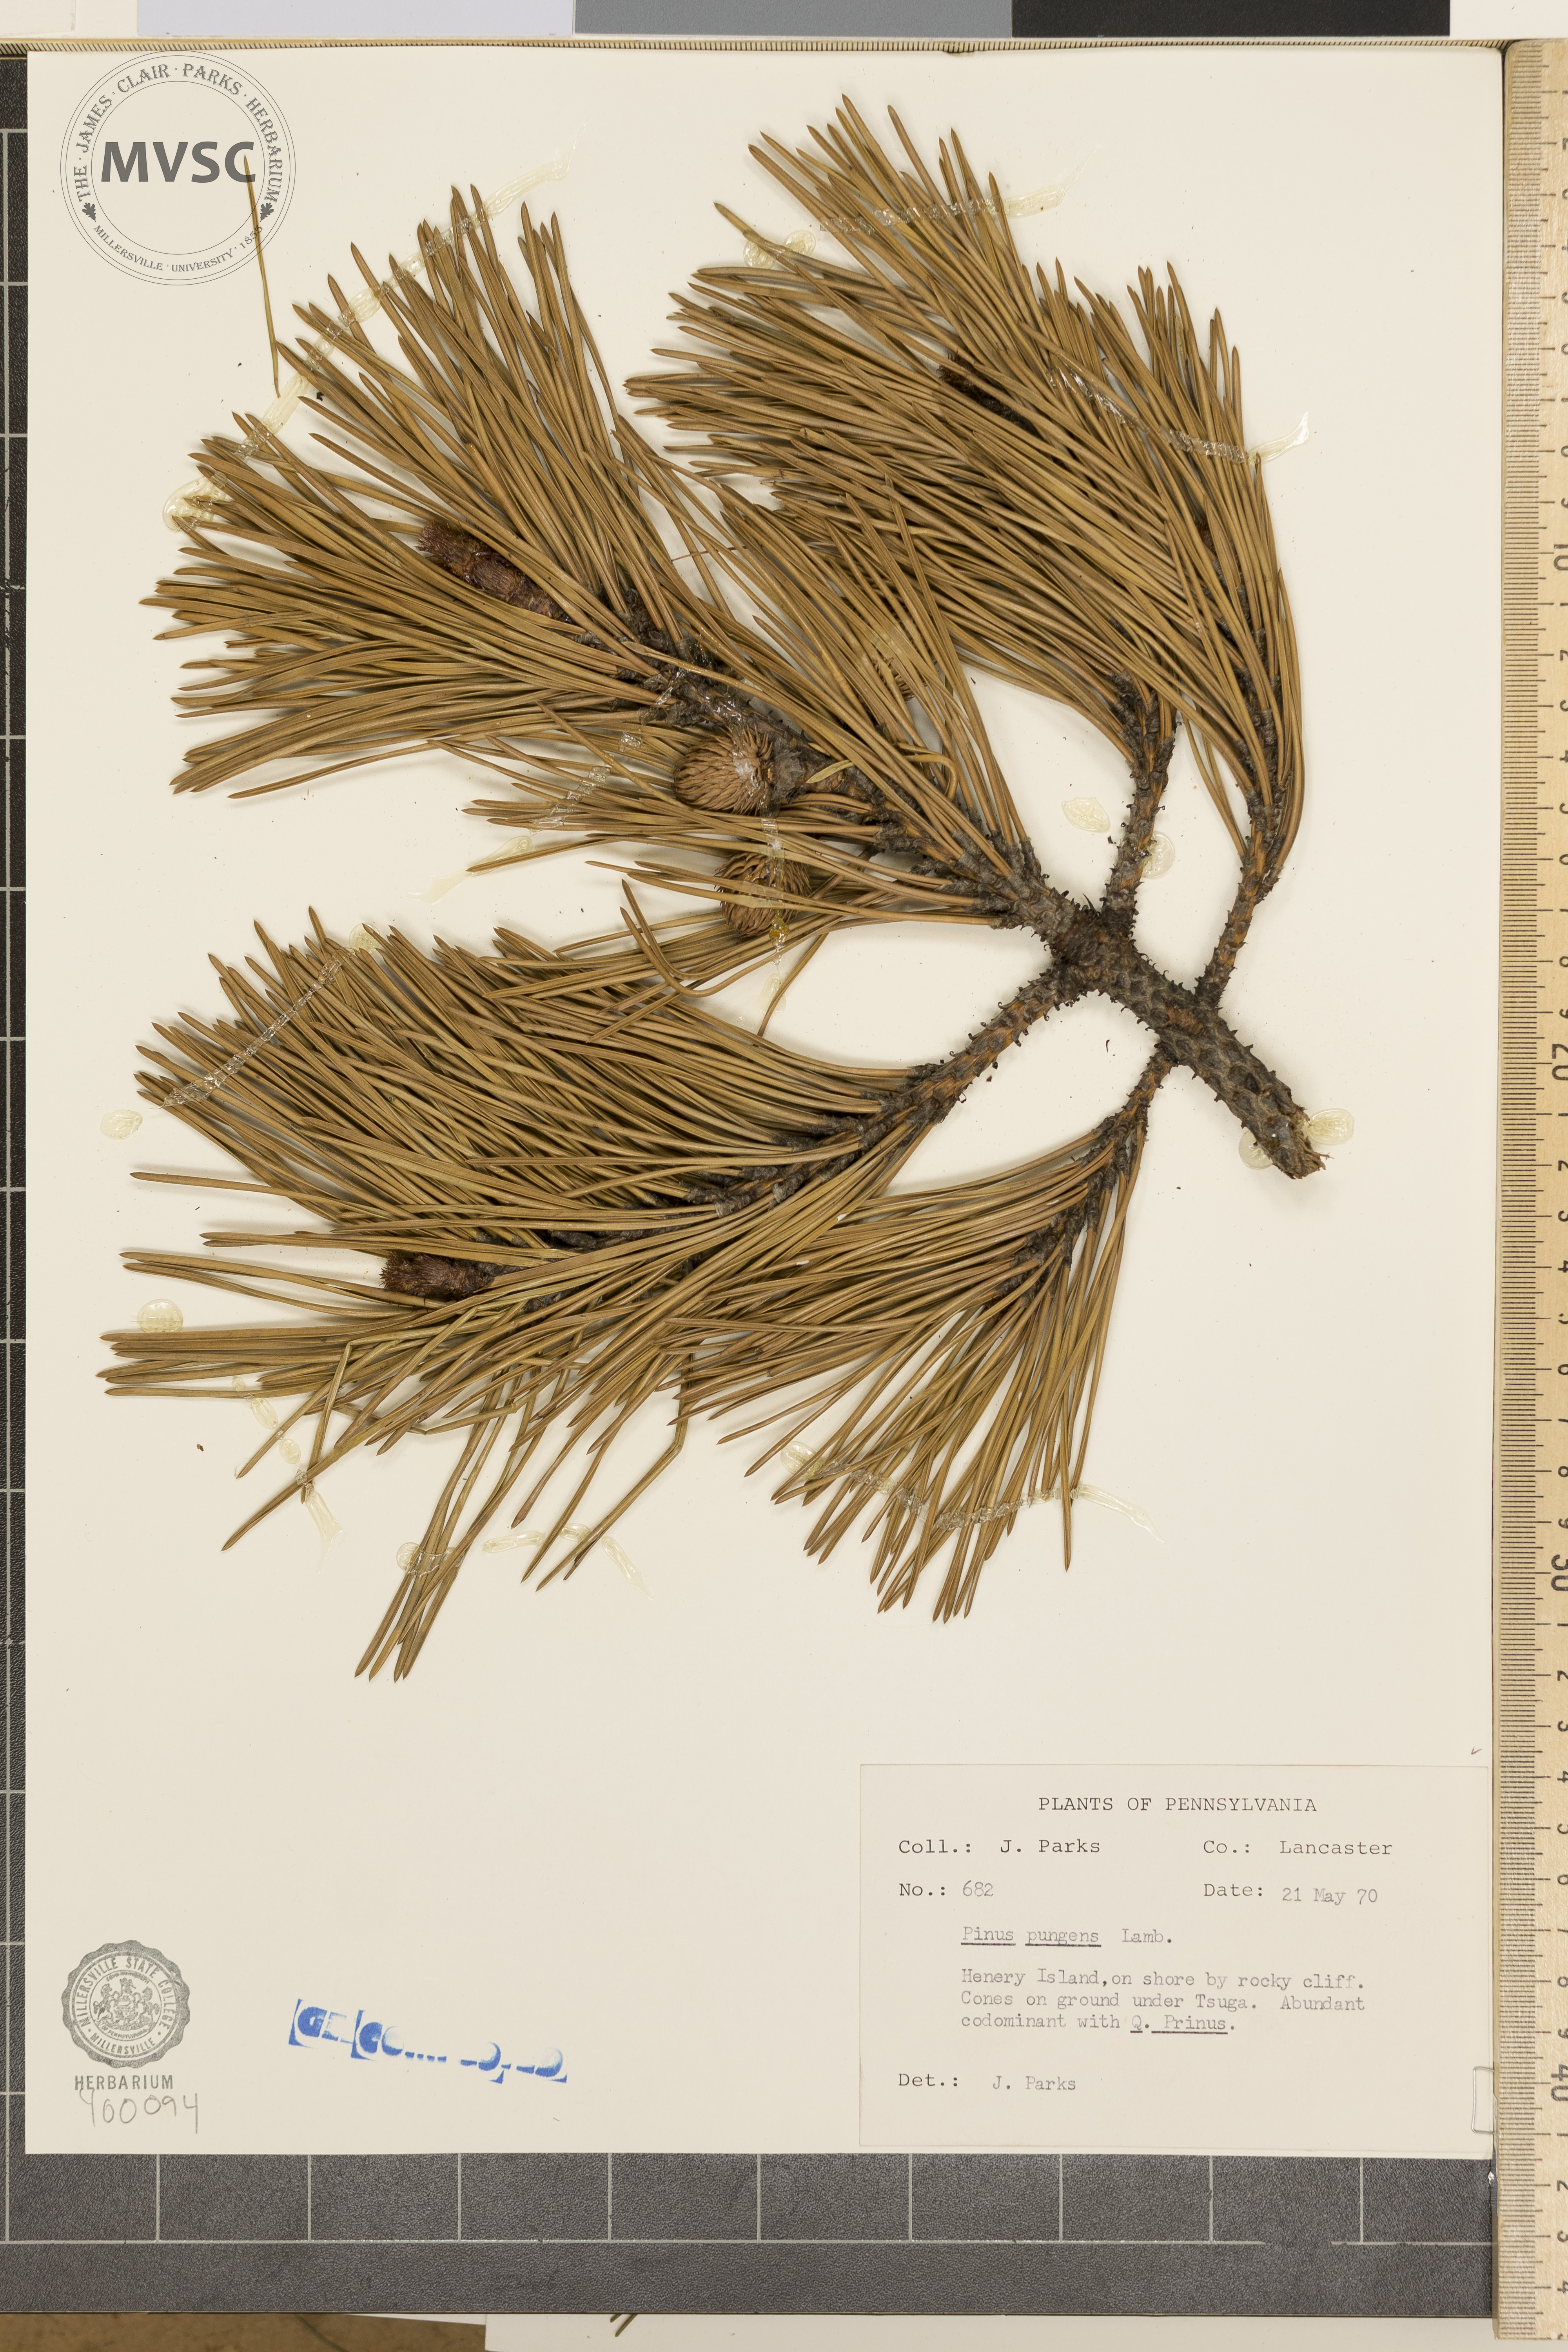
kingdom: Plantae
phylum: Tracheophyta
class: Pinopsida
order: Pinales
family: Pinaceae
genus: Pinus
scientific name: Pinus pungens
